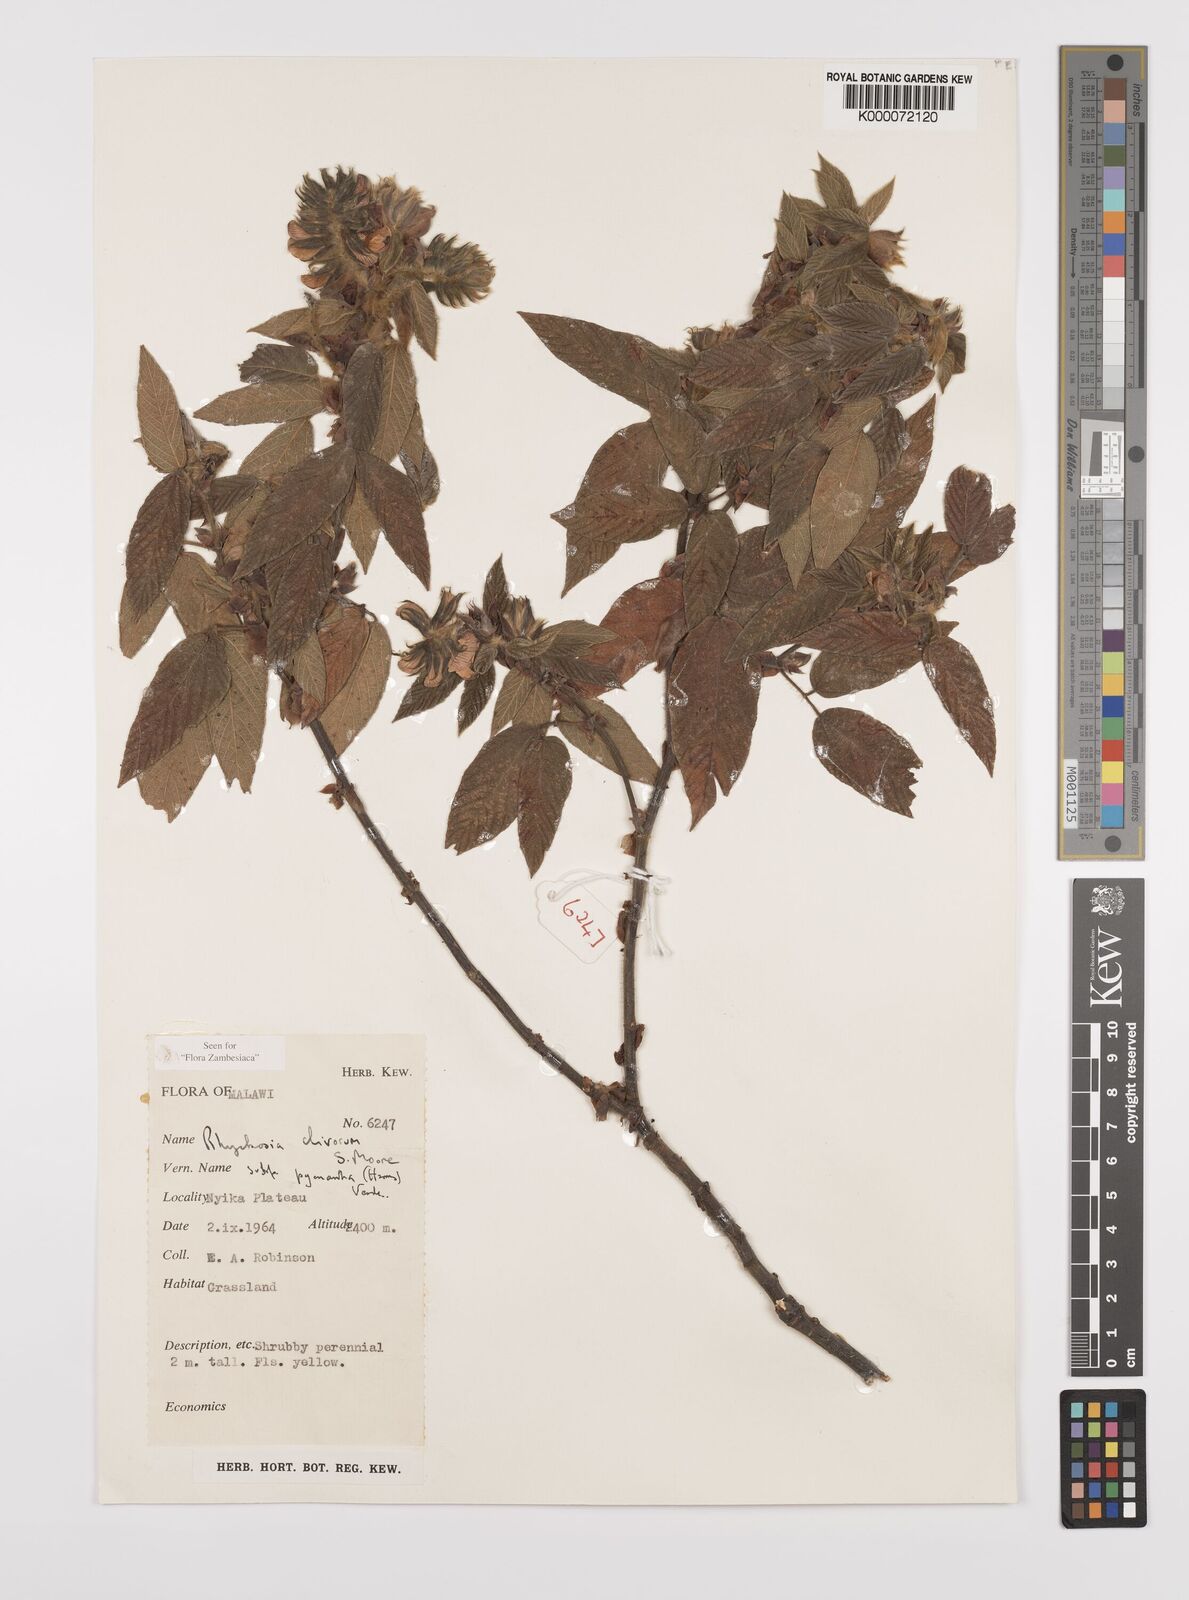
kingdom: Plantae
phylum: Tracheophyta
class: Magnoliopsida
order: Fabales
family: Fabaceae
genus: Rhynchosia
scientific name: Rhynchosia clivorum
